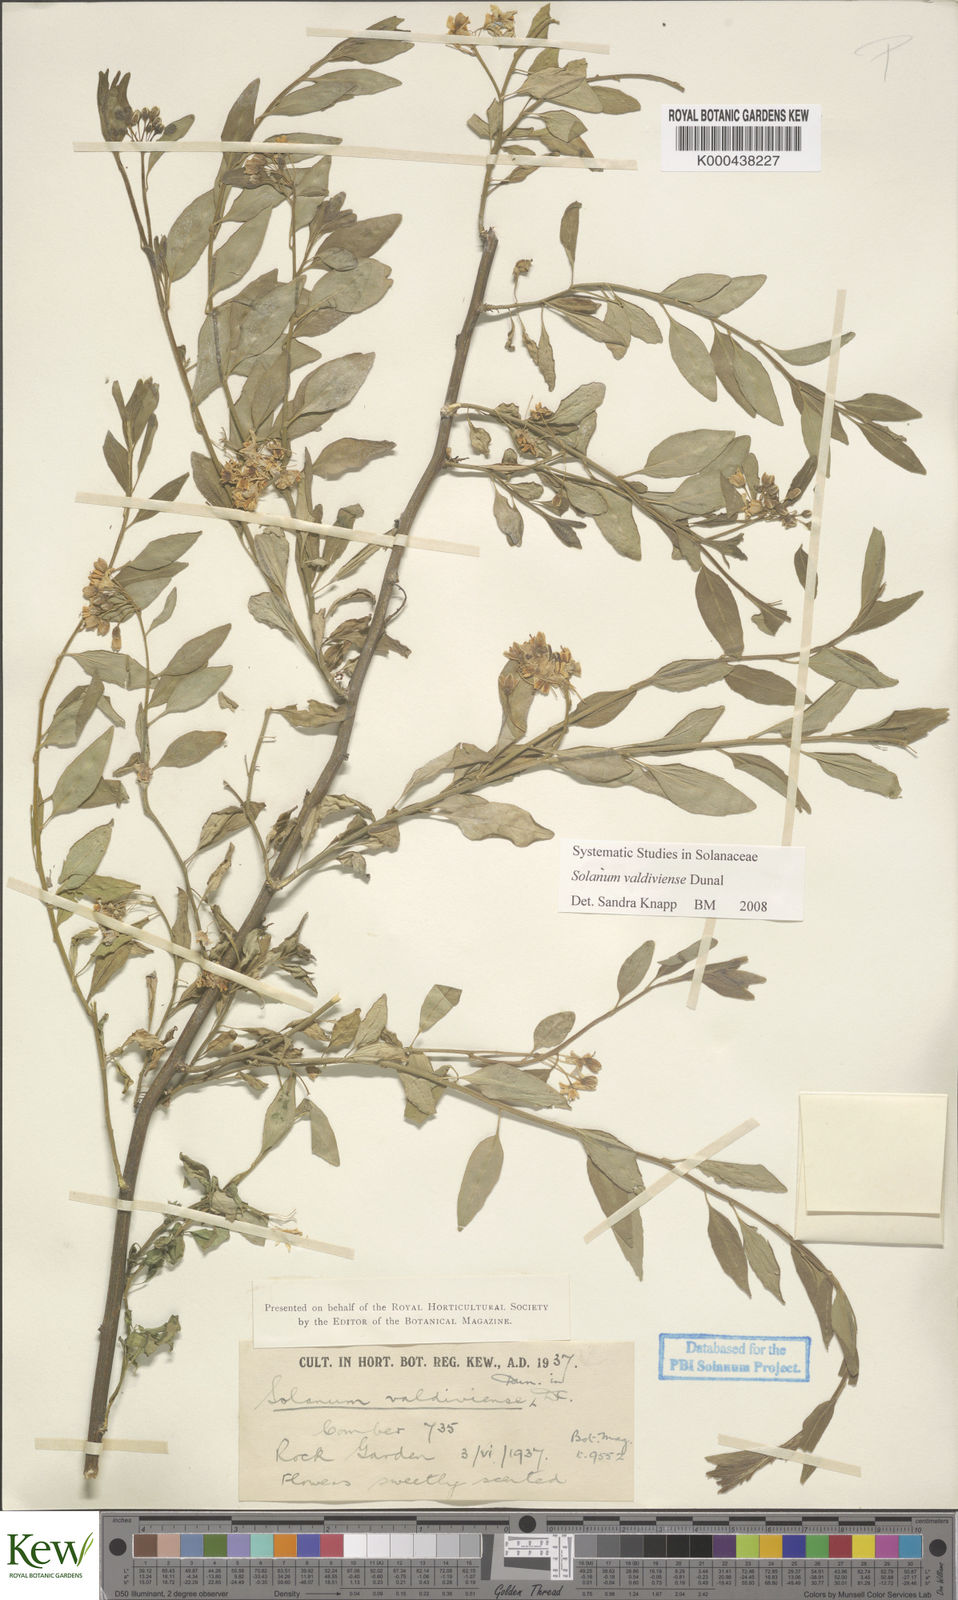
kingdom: Plantae
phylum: Tracheophyta
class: Magnoliopsida
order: Solanales
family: Solanaceae
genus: Solanum
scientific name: Solanum valdiviense
